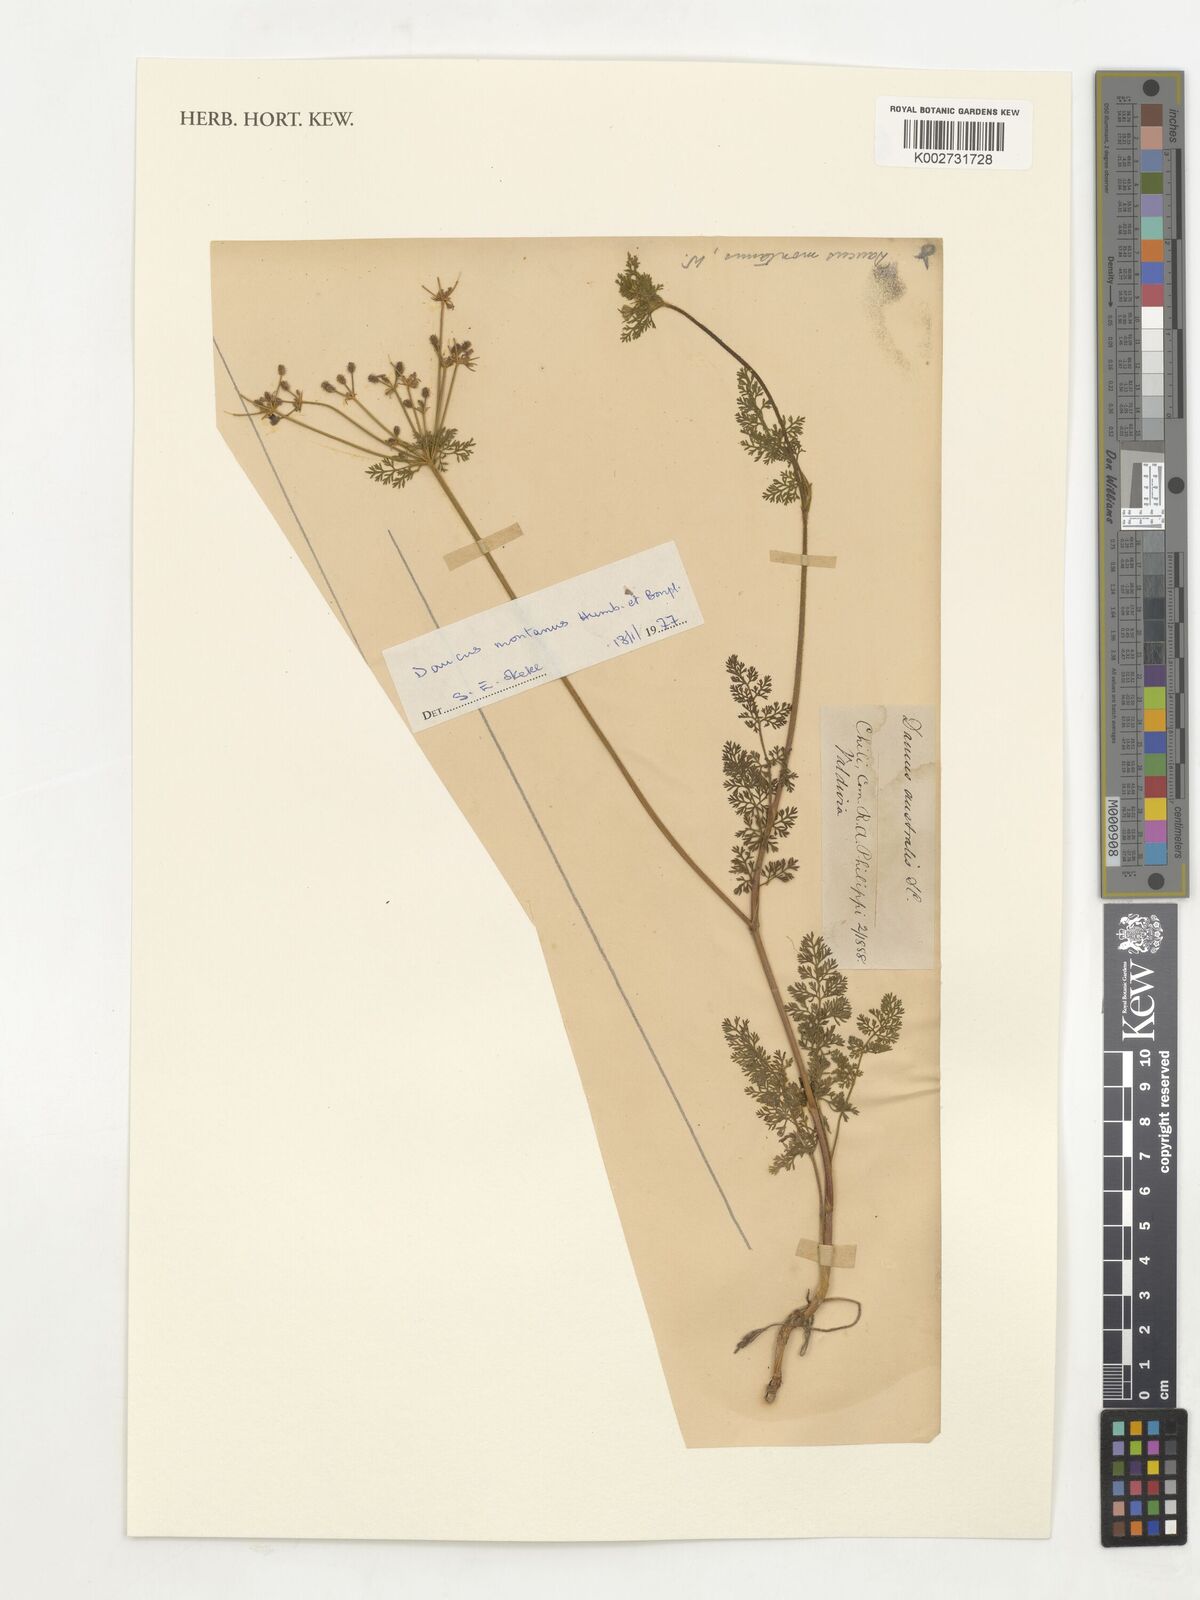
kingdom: Plantae
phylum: Tracheophyta
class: Magnoliopsida
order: Apiales
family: Apiaceae
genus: Daucus
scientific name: Daucus montanus
